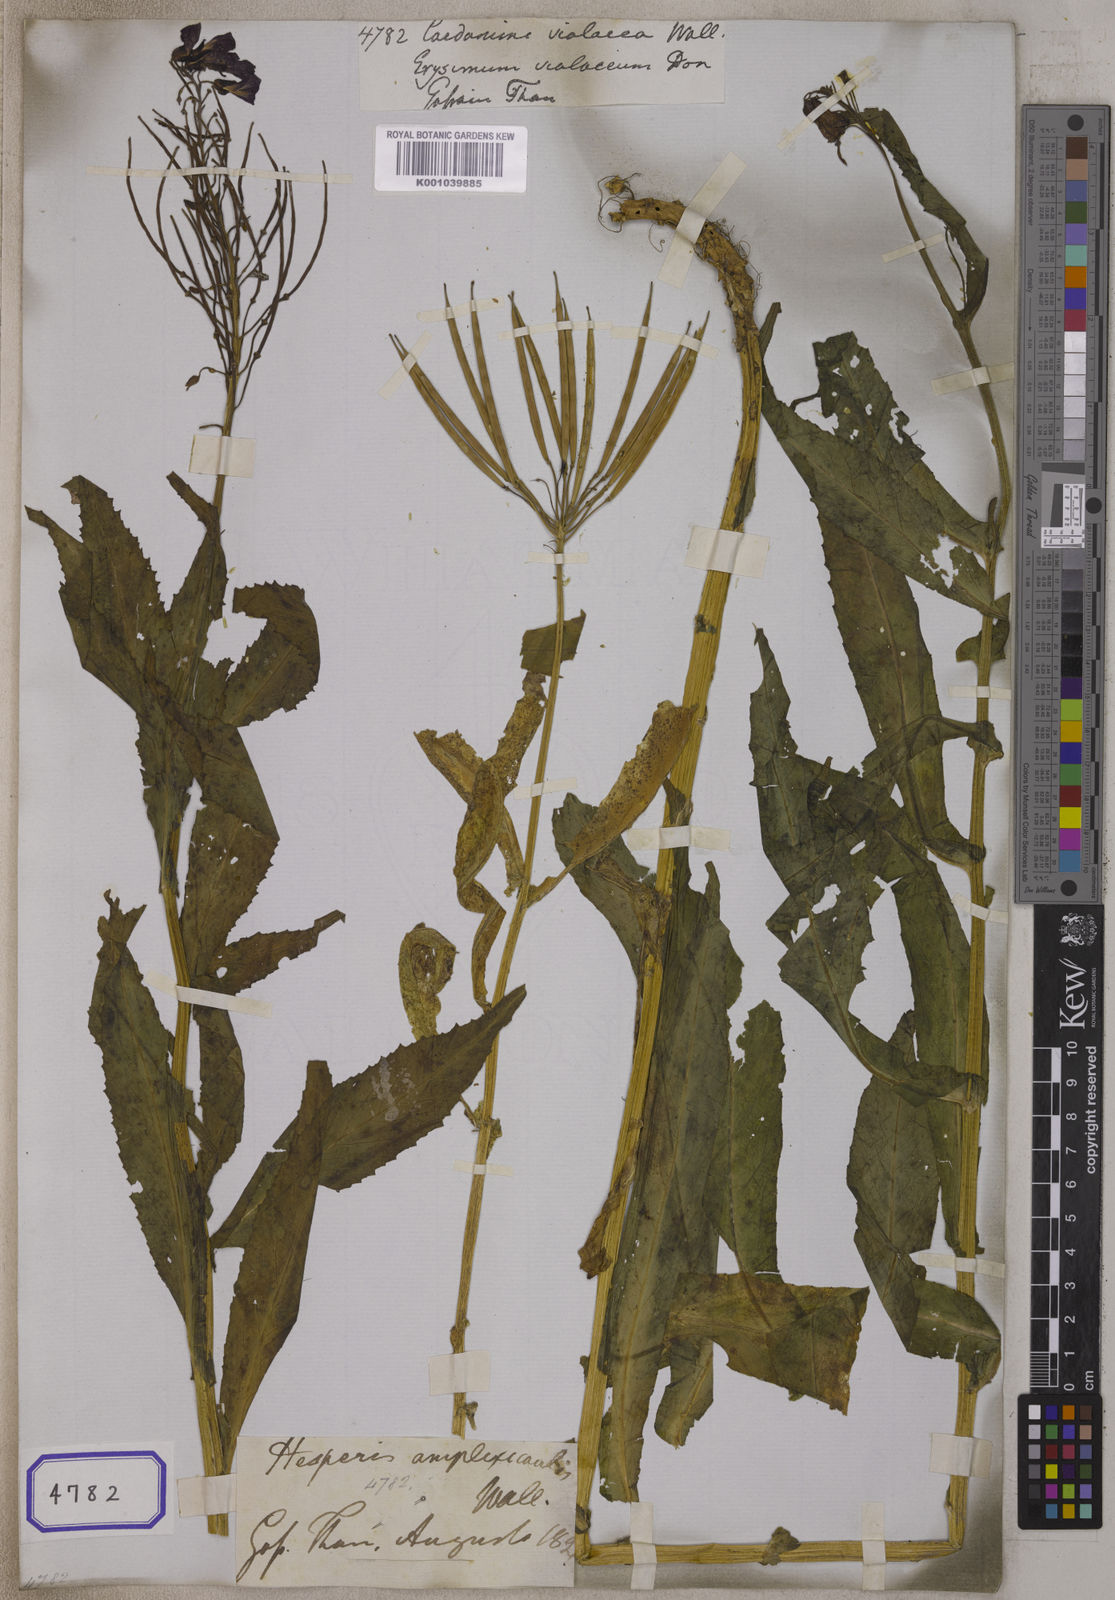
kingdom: Plantae
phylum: Tracheophyta
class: Magnoliopsida
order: Brassicales
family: Brassicaceae
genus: Cardamine
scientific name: Cardamine violacea
